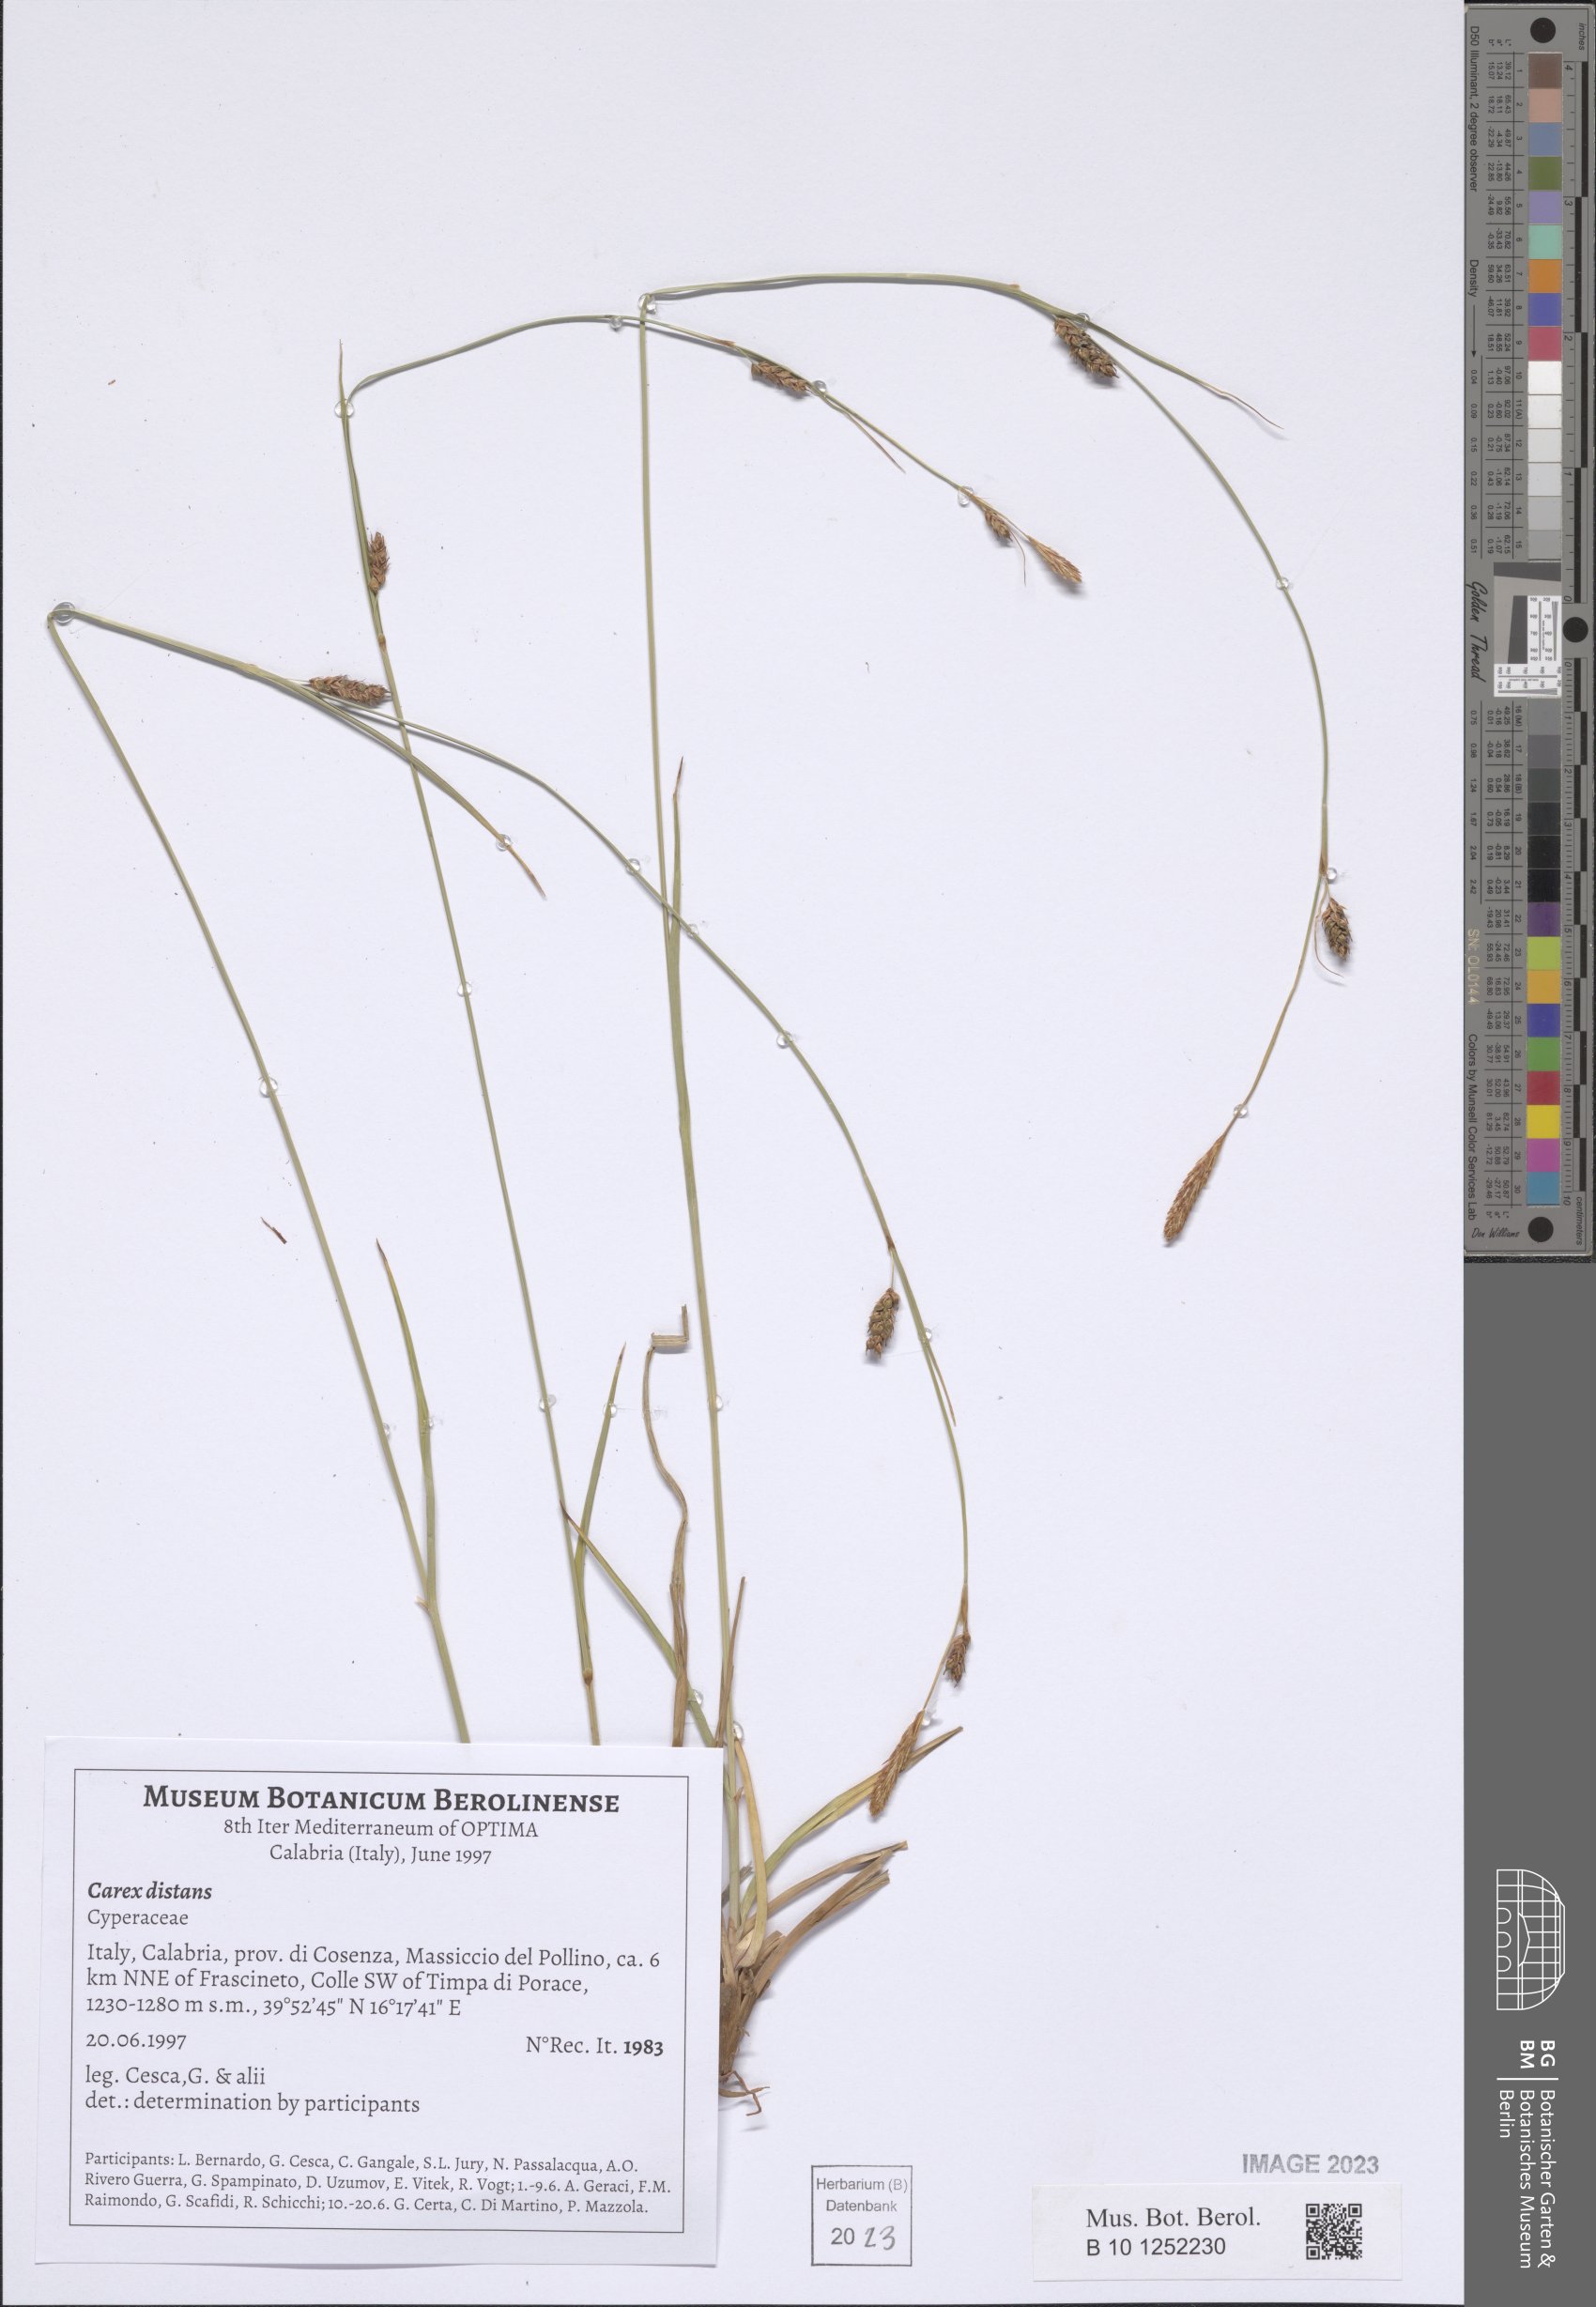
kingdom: Plantae
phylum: Tracheophyta
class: Liliopsida
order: Poales
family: Cyperaceae
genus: Carex
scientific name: Carex distans
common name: Distant sedge
